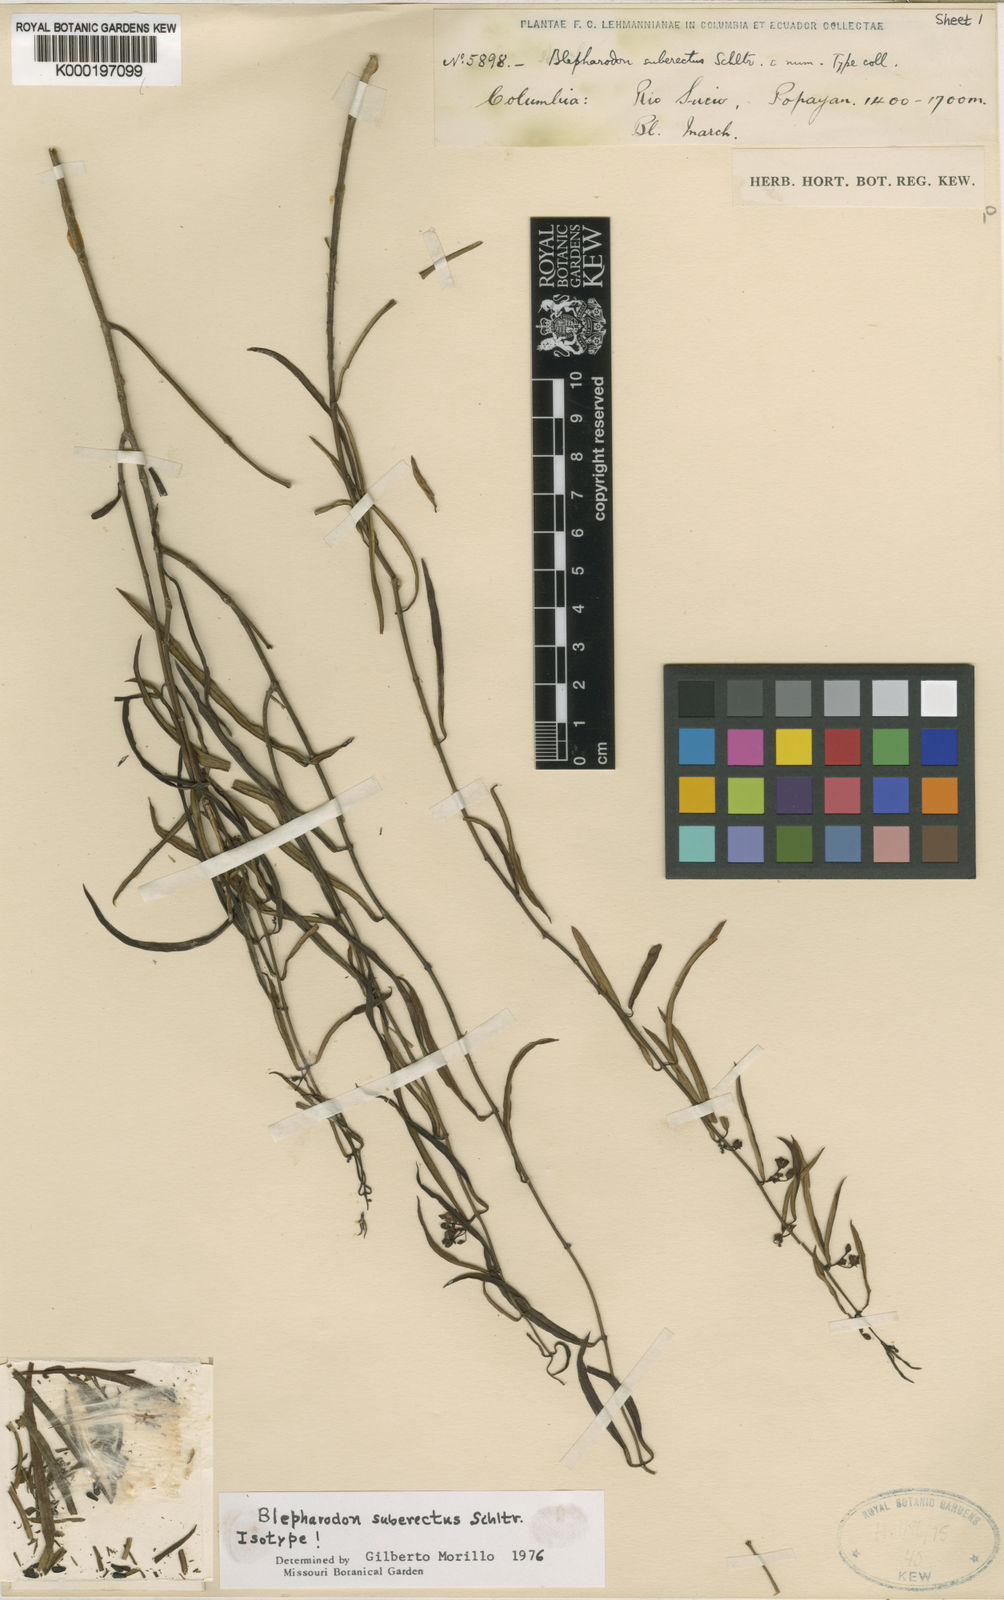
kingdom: Plantae
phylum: Tracheophyta
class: Magnoliopsida
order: Gentianales
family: Apocynaceae
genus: Blepharodon
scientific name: Blepharodon suberectum
